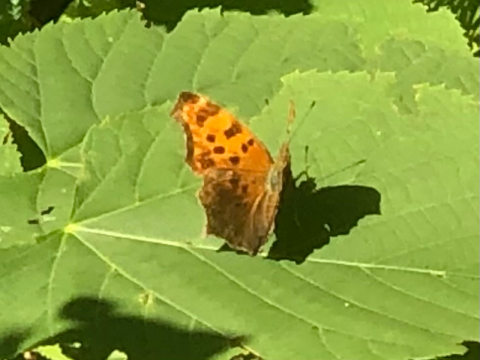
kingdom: Animalia
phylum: Arthropoda
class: Insecta
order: Lepidoptera
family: Nymphalidae
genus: Polygonia
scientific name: Polygonia comma
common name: Eastern Comma
